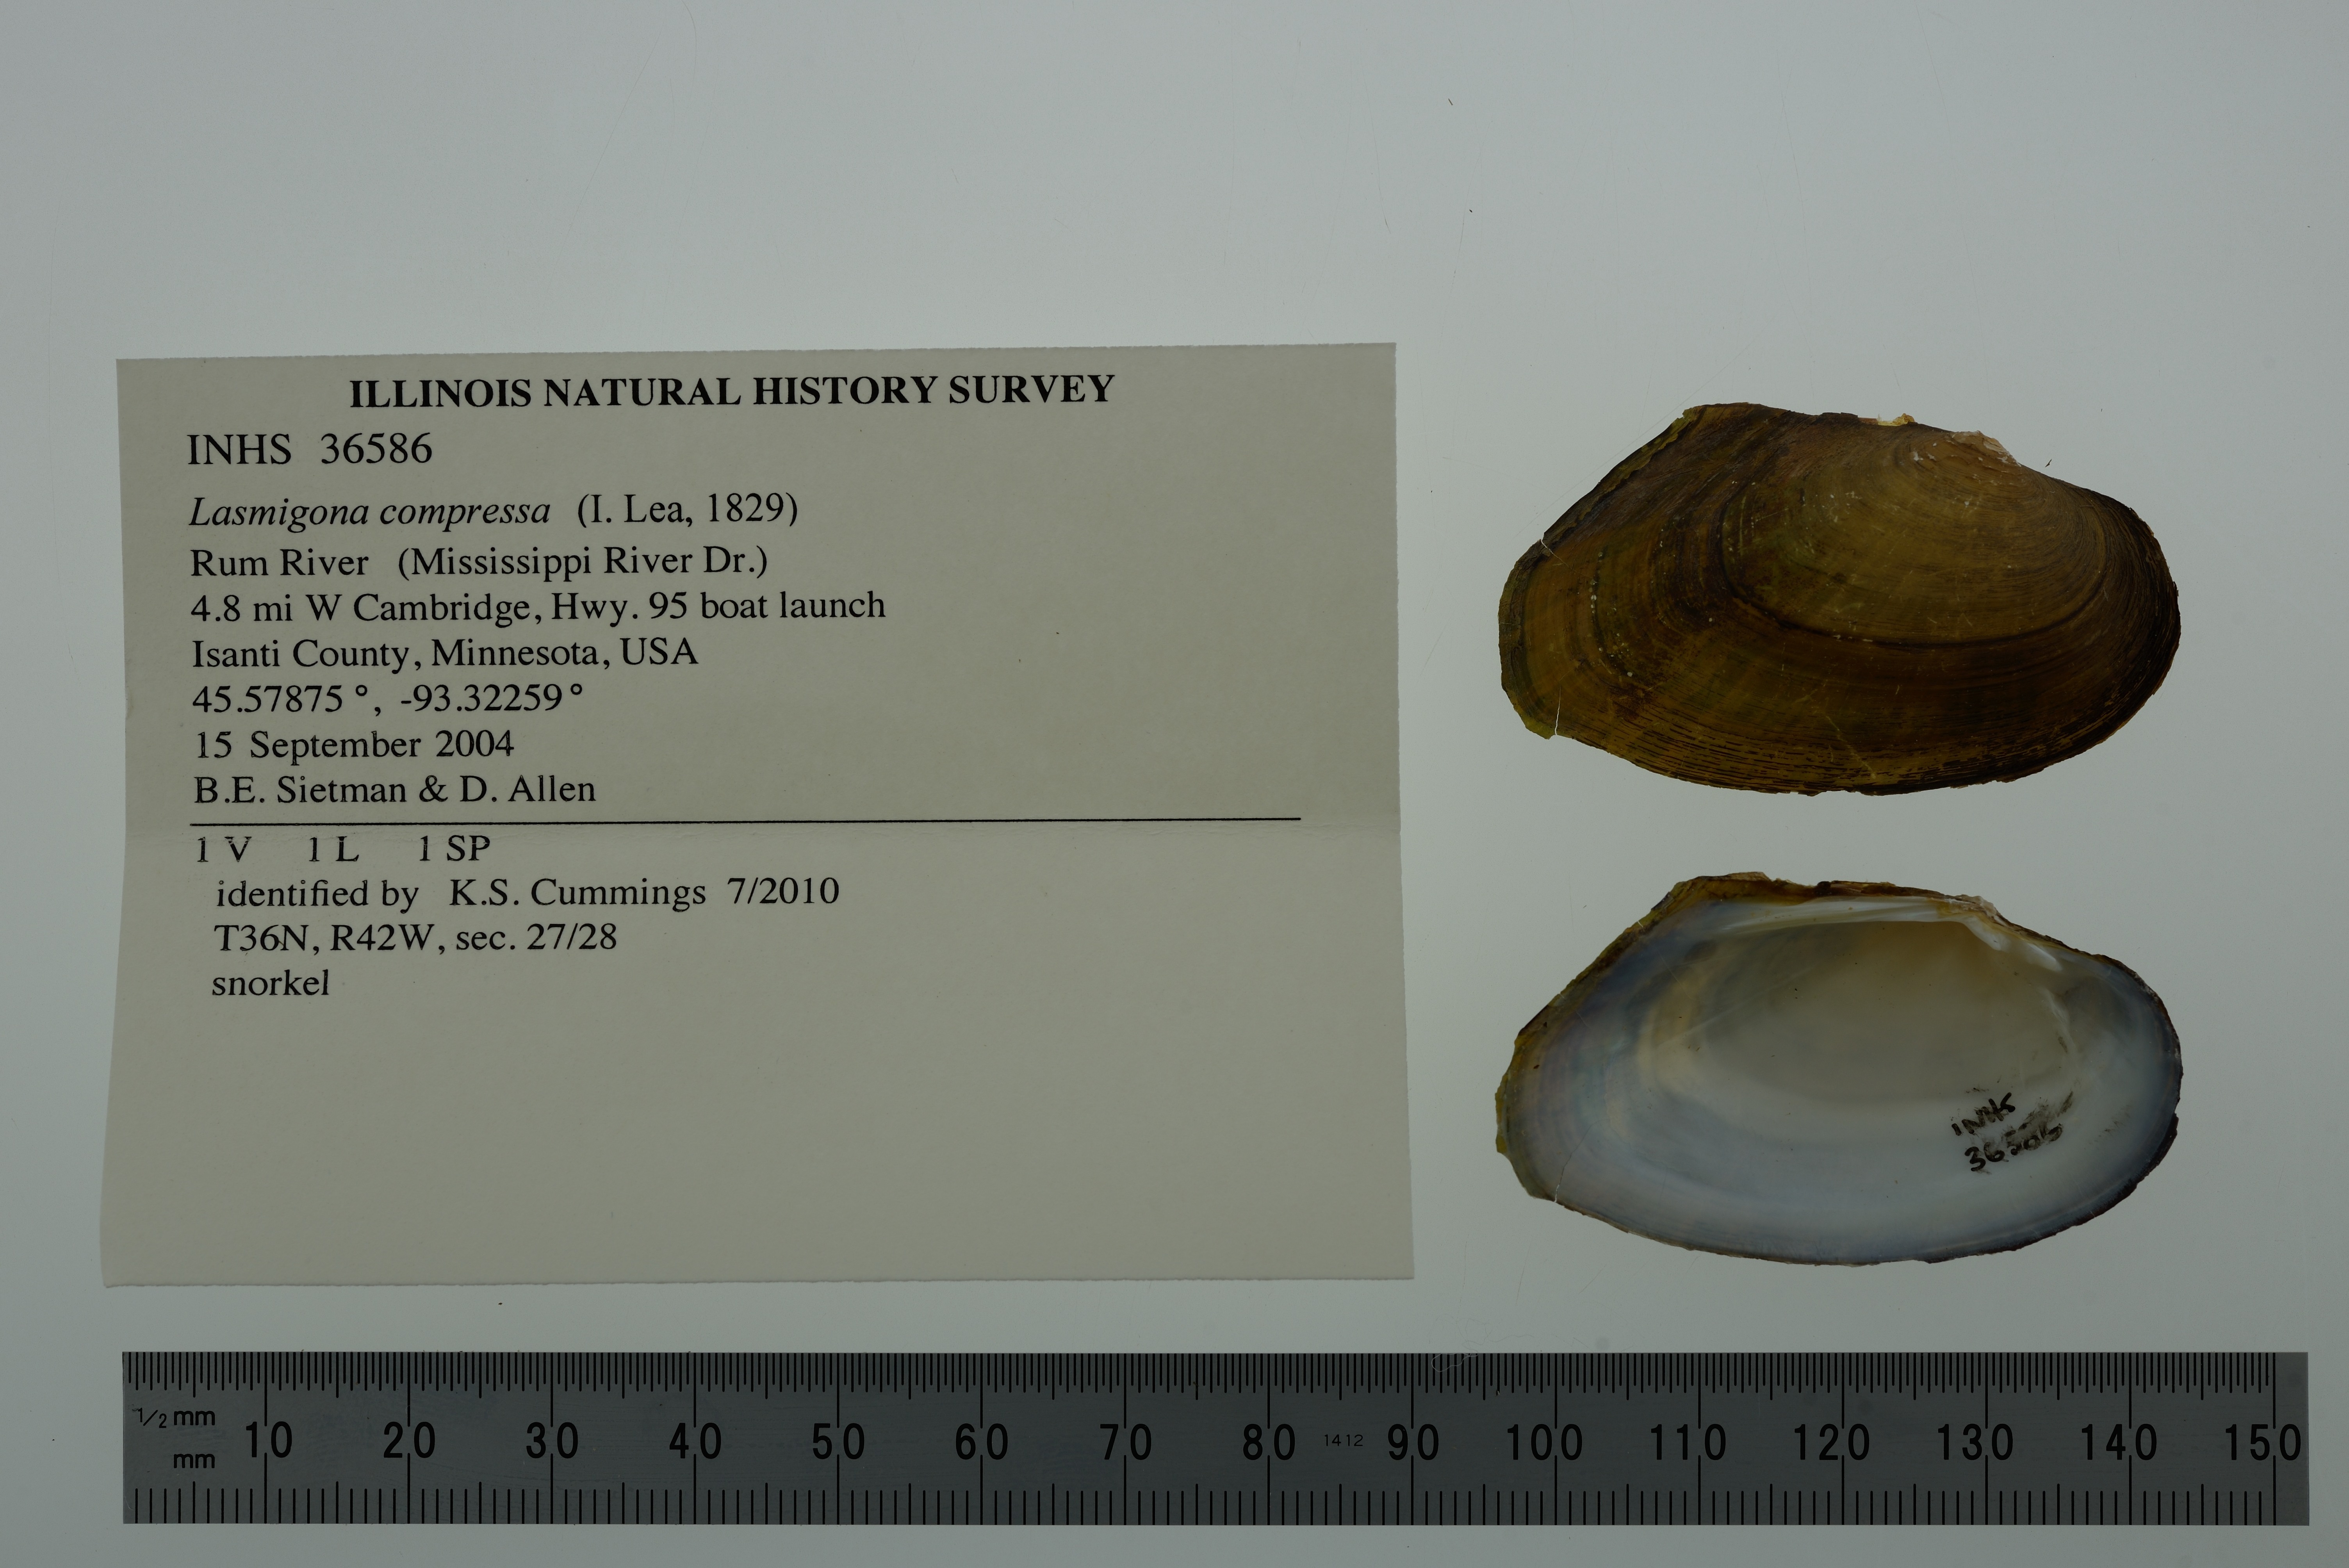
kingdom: Animalia
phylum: Mollusca
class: Bivalvia
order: Unionida
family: Unionidae
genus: Lasmigona
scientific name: Lasmigona compressa
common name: Creek heelsplitter
